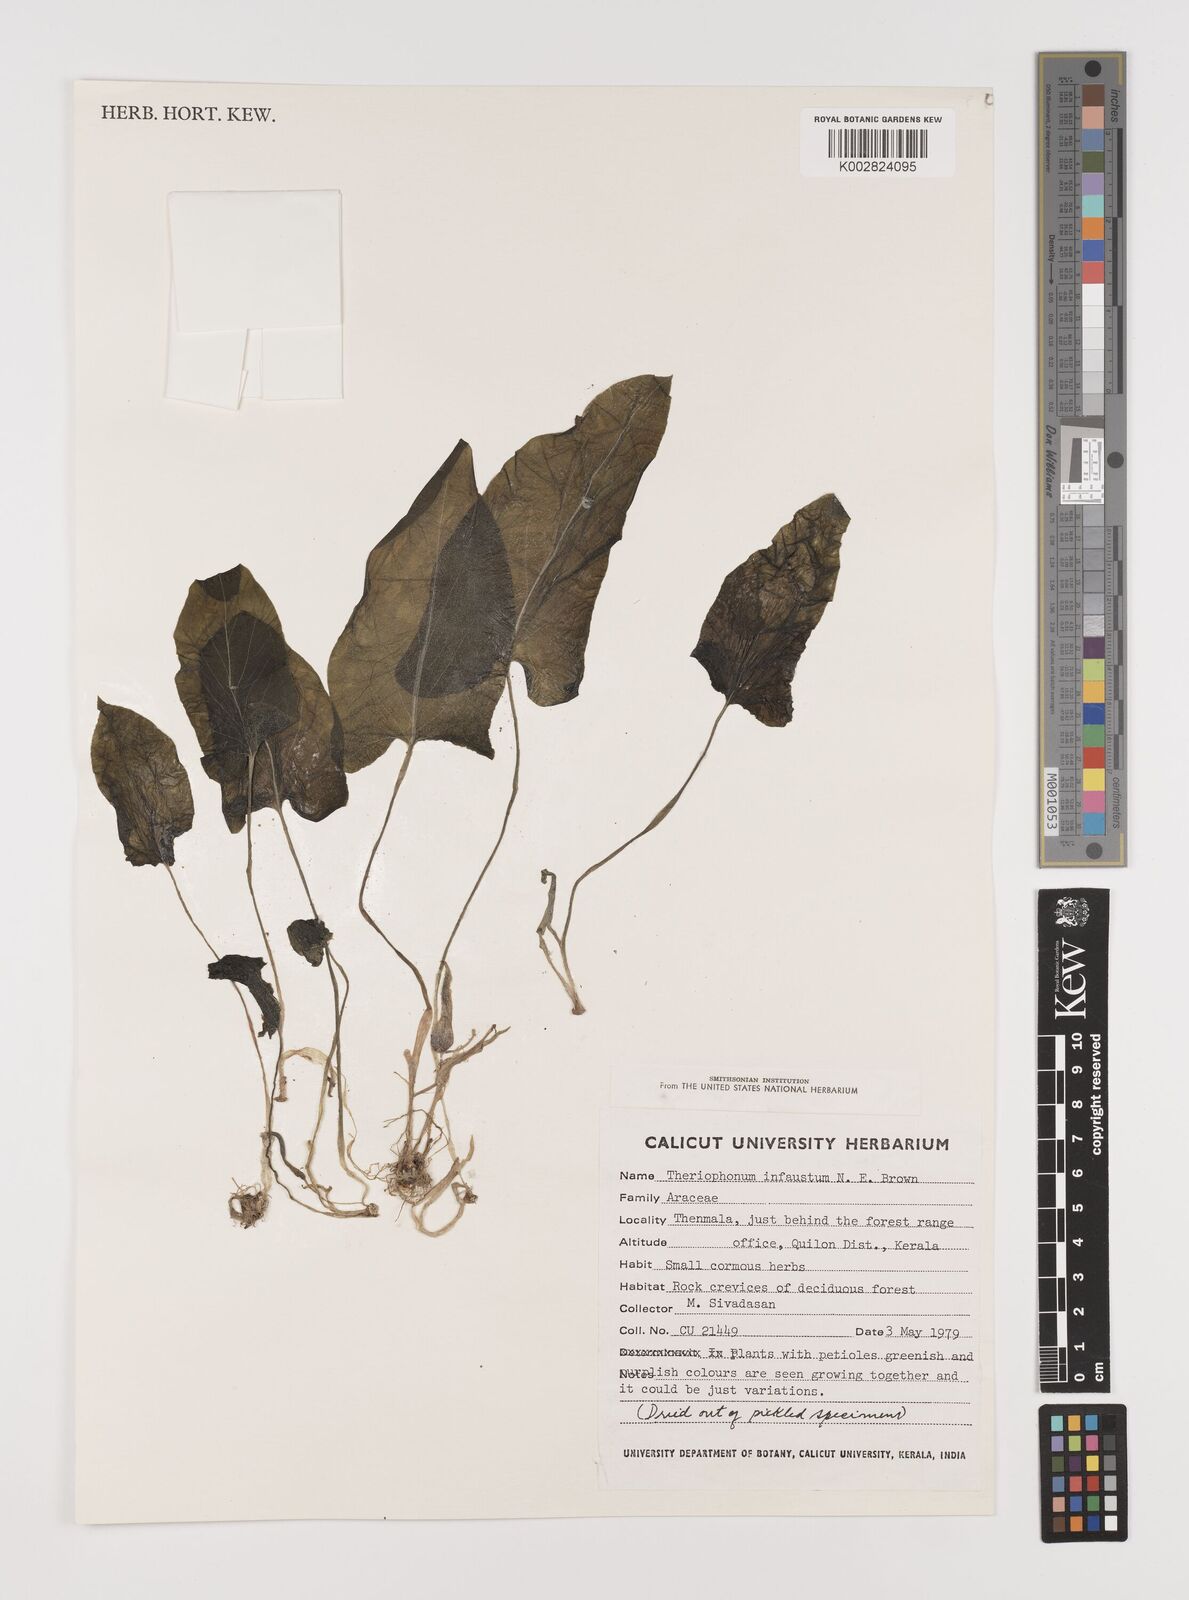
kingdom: Plantae
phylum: Tracheophyta
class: Liliopsida
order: Alismatales
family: Araceae
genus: Theriophonum
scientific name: Theriophonum infaustum
